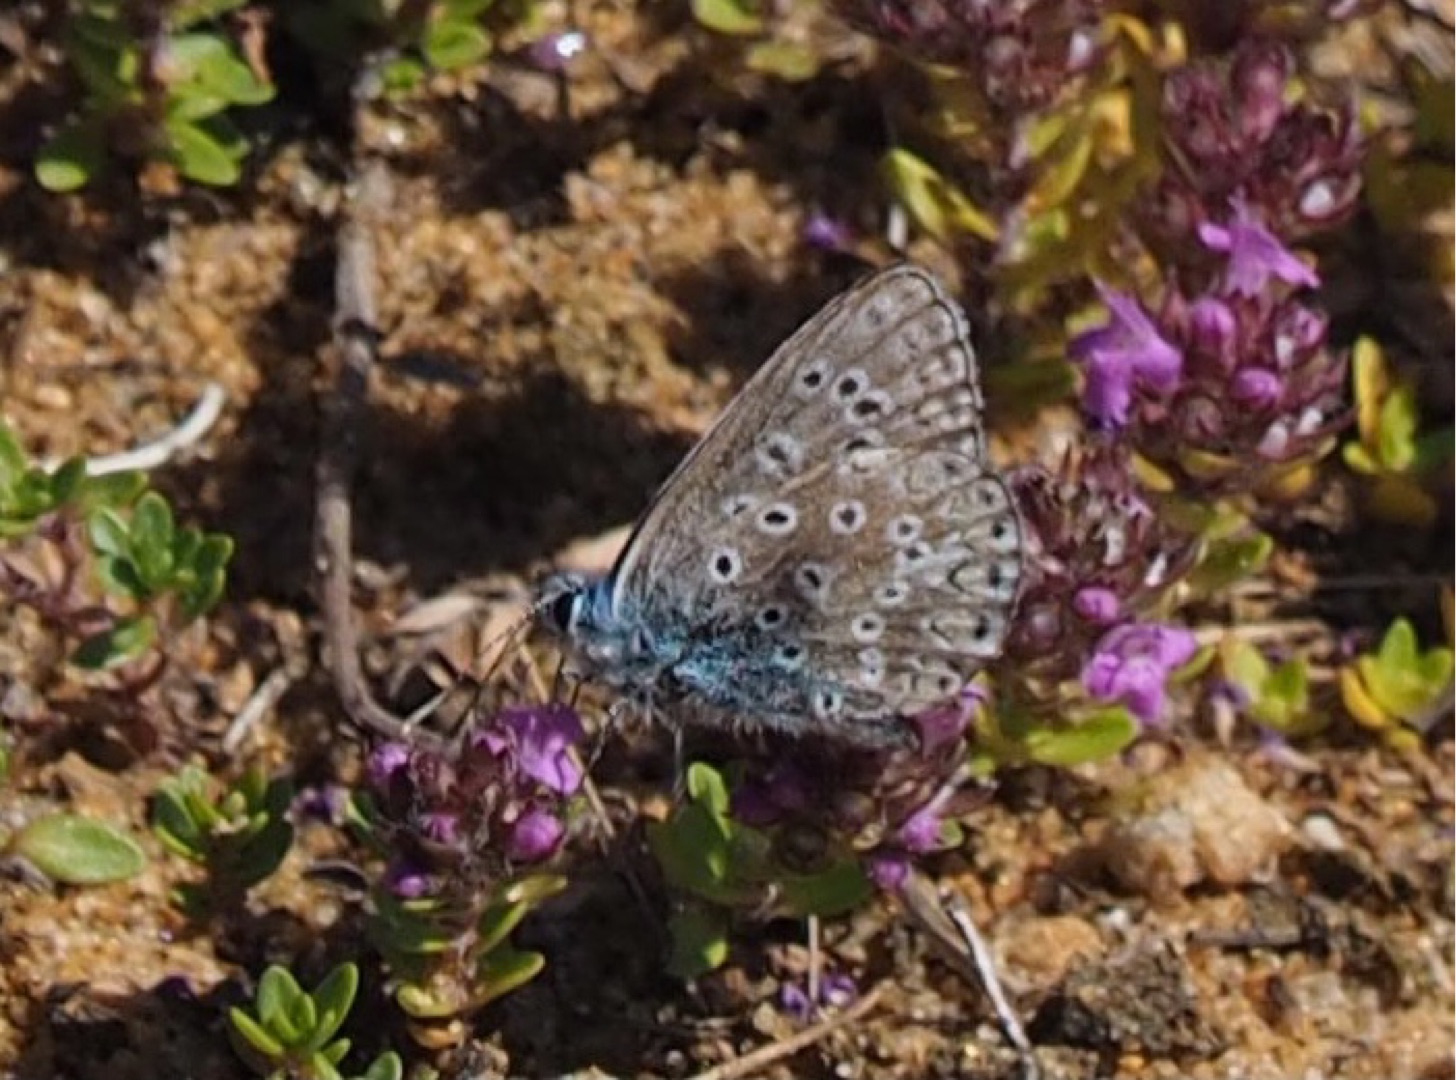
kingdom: Animalia
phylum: Arthropoda
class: Insecta
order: Lepidoptera
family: Lycaenidae
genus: Polyommatus
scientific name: Polyommatus icarus
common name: Almindelig blåfugl
